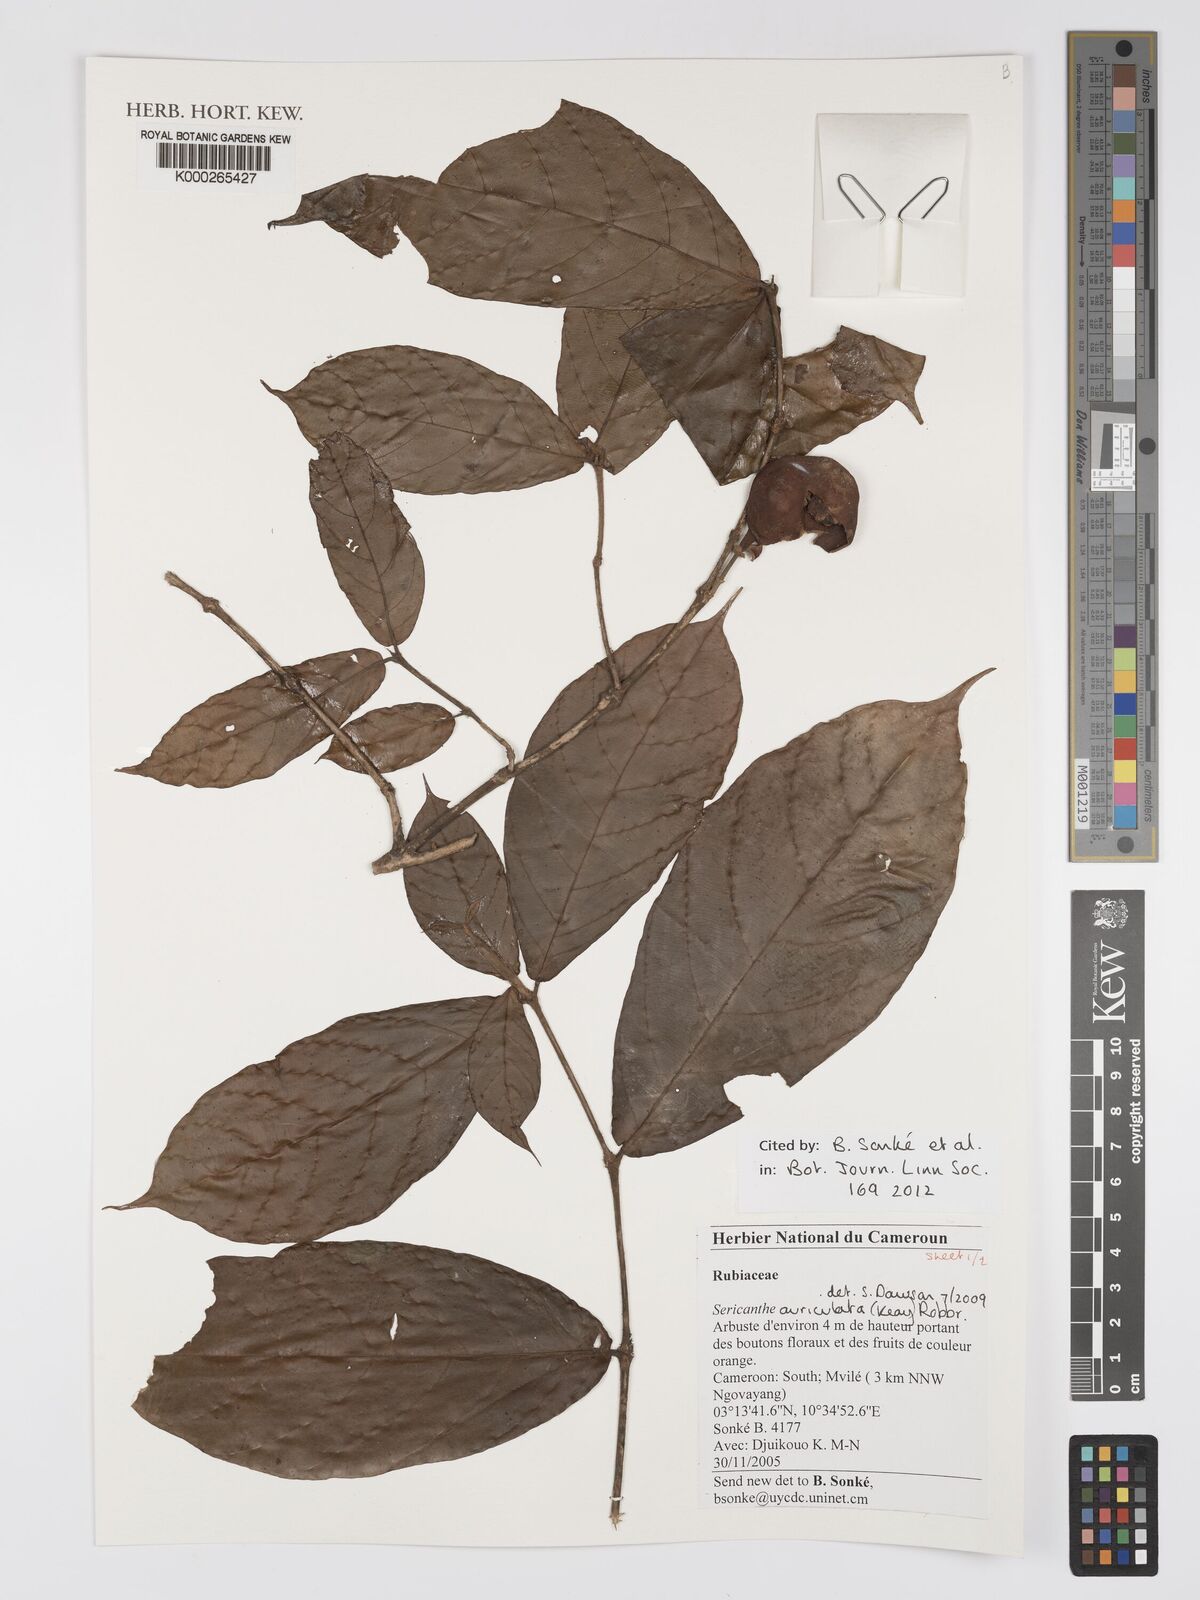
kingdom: Plantae
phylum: Tracheophyta
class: Magnoliopsida
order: Gentianales
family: Rubiaceae
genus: Sericanthe
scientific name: Sericanthe auriculata
